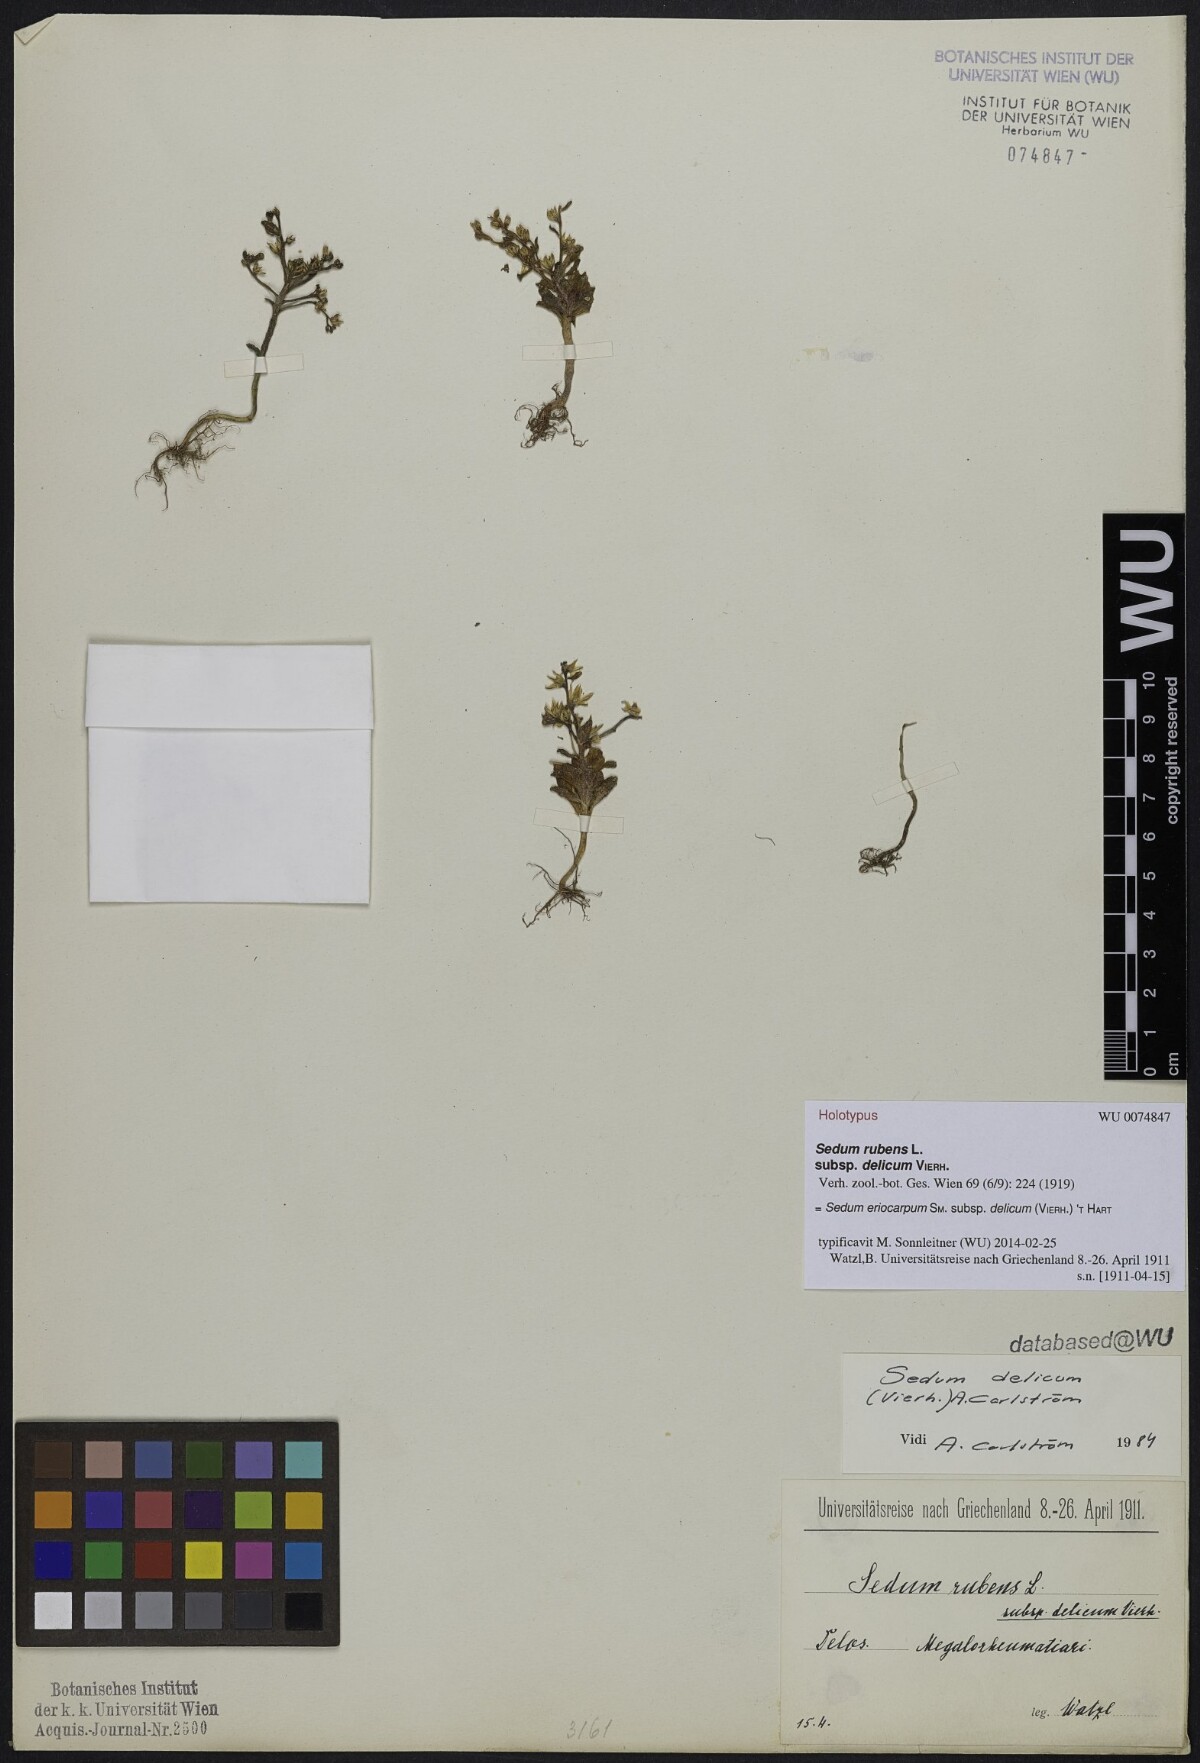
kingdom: Plantae
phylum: Tracheophyta
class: Magnoliopsida
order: Saxifragales
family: Crassulaceae
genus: Sedum
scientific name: Sedum eriocarpum
